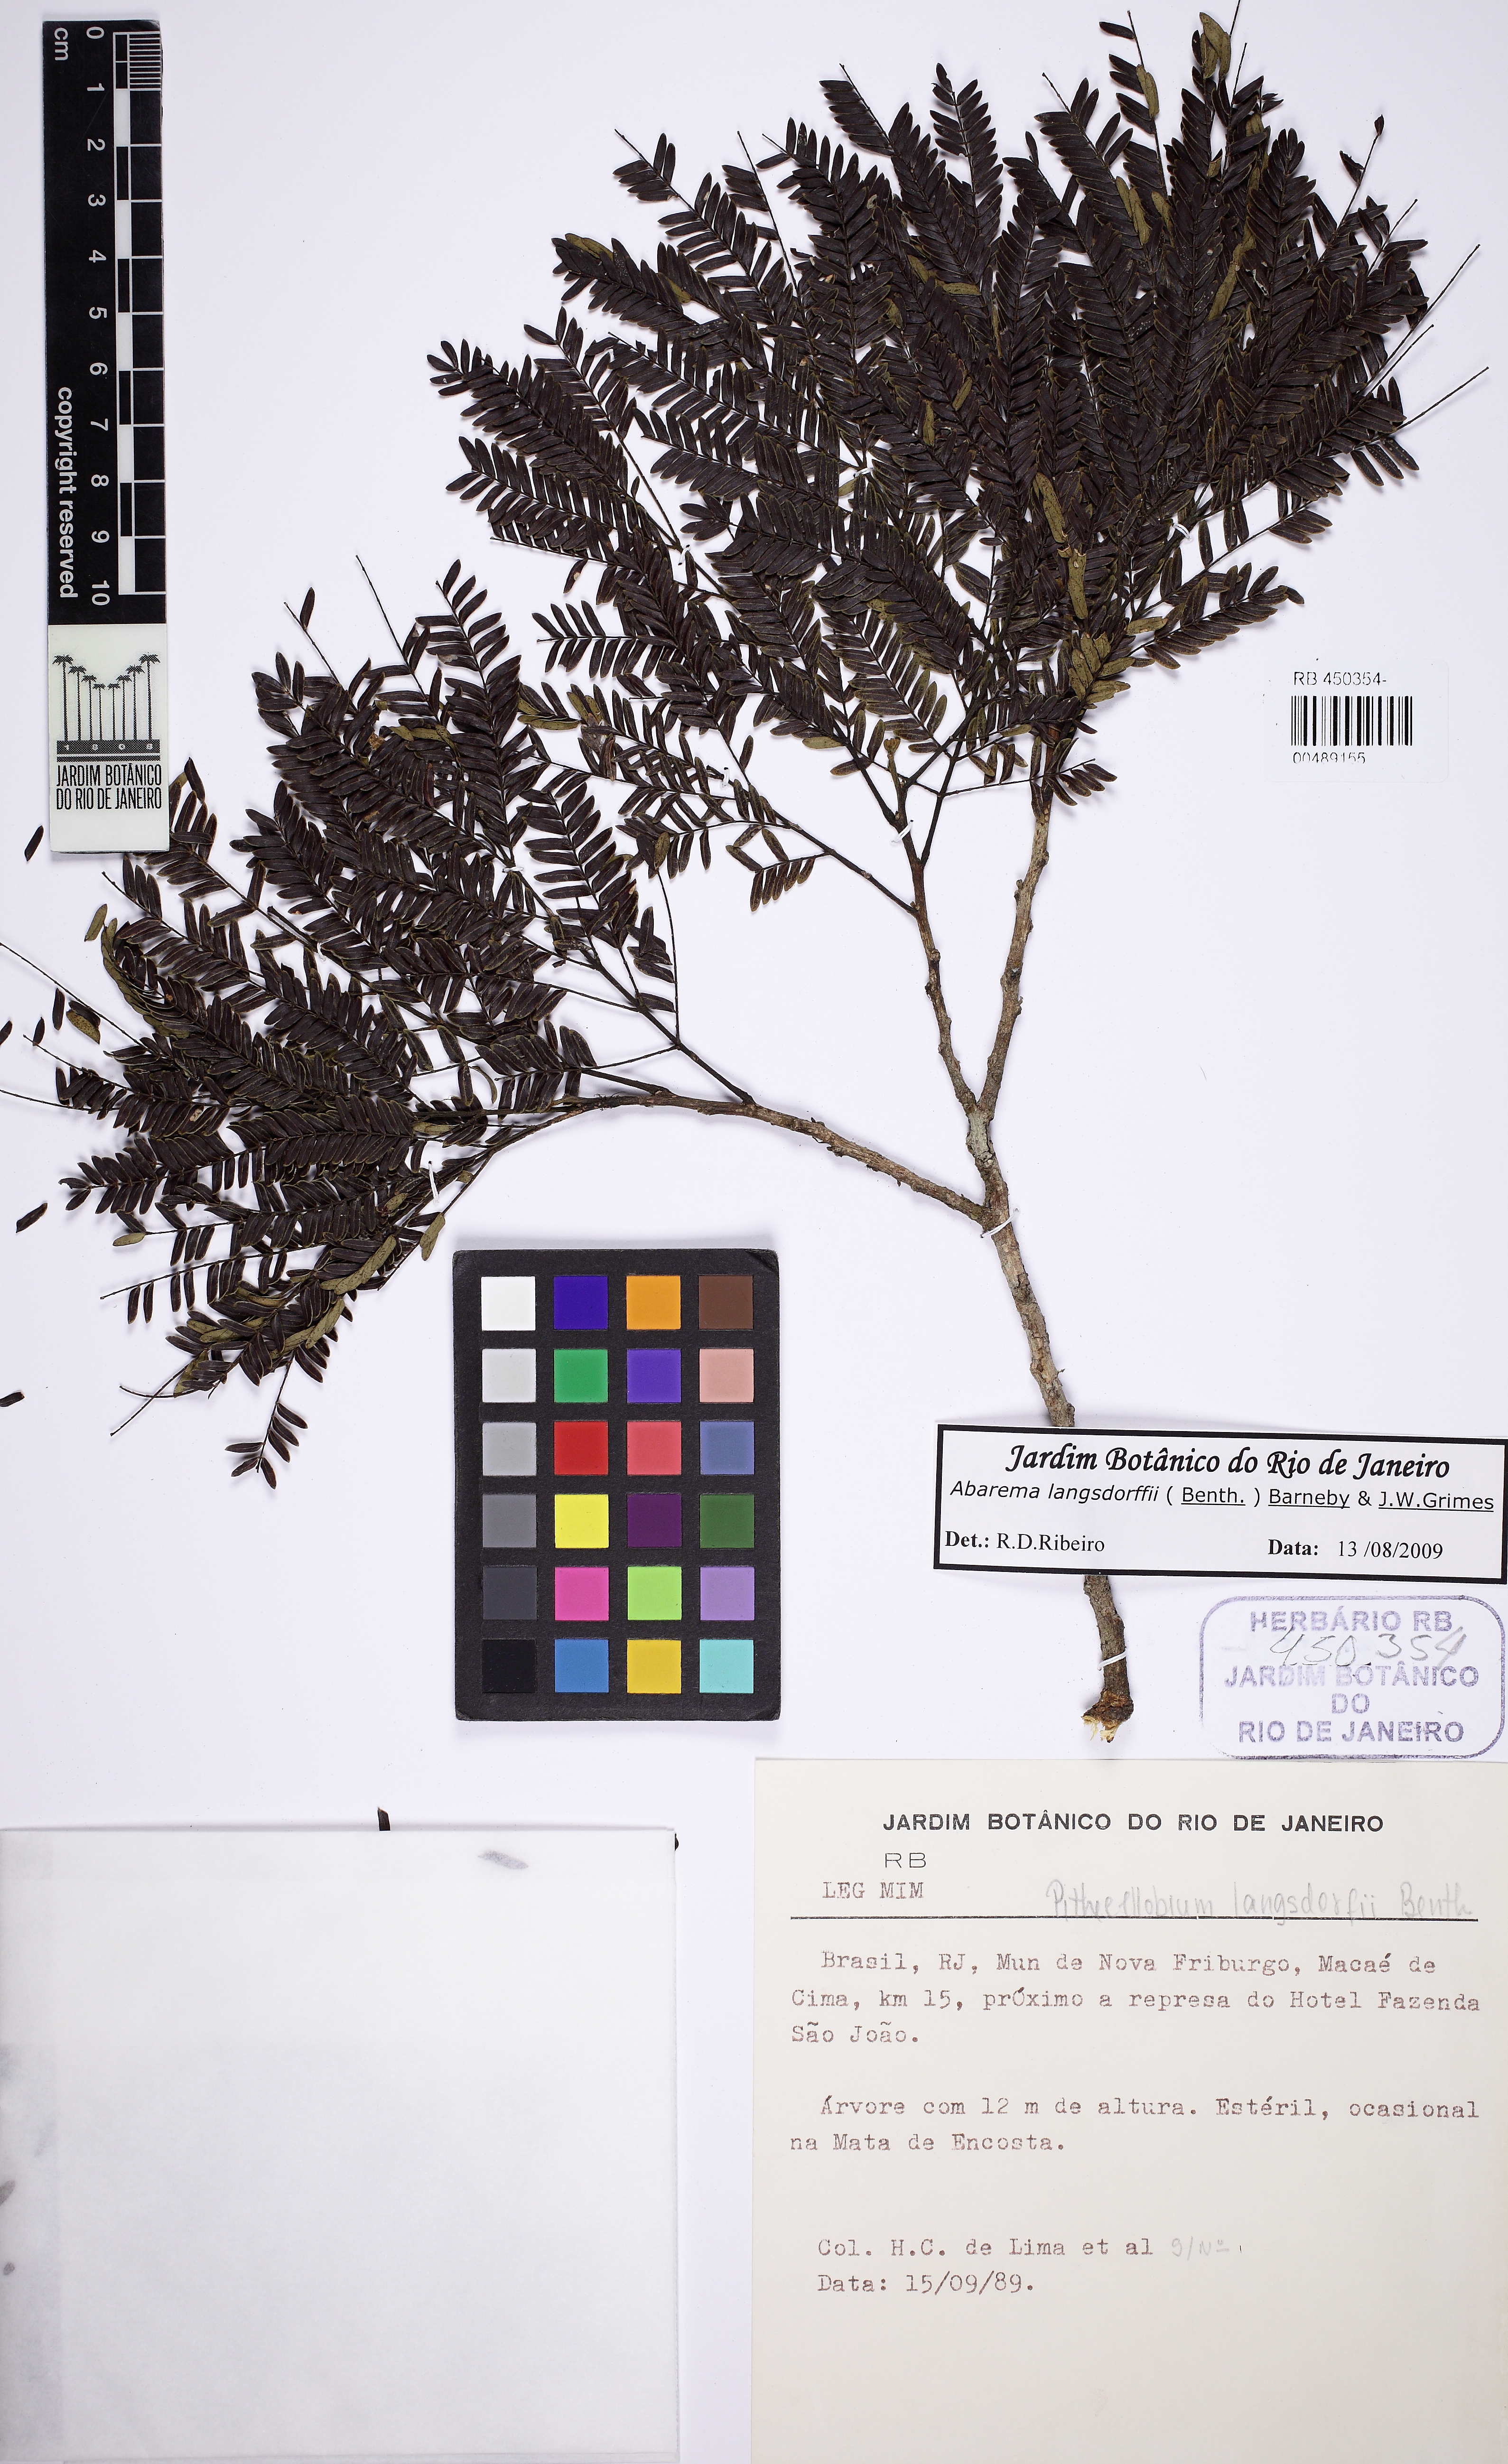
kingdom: Plantae
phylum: Tracheophyta
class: Magnoliopsida
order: Fabales
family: Fabaceae
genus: Jupunba
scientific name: Jupunba langsdorffii
